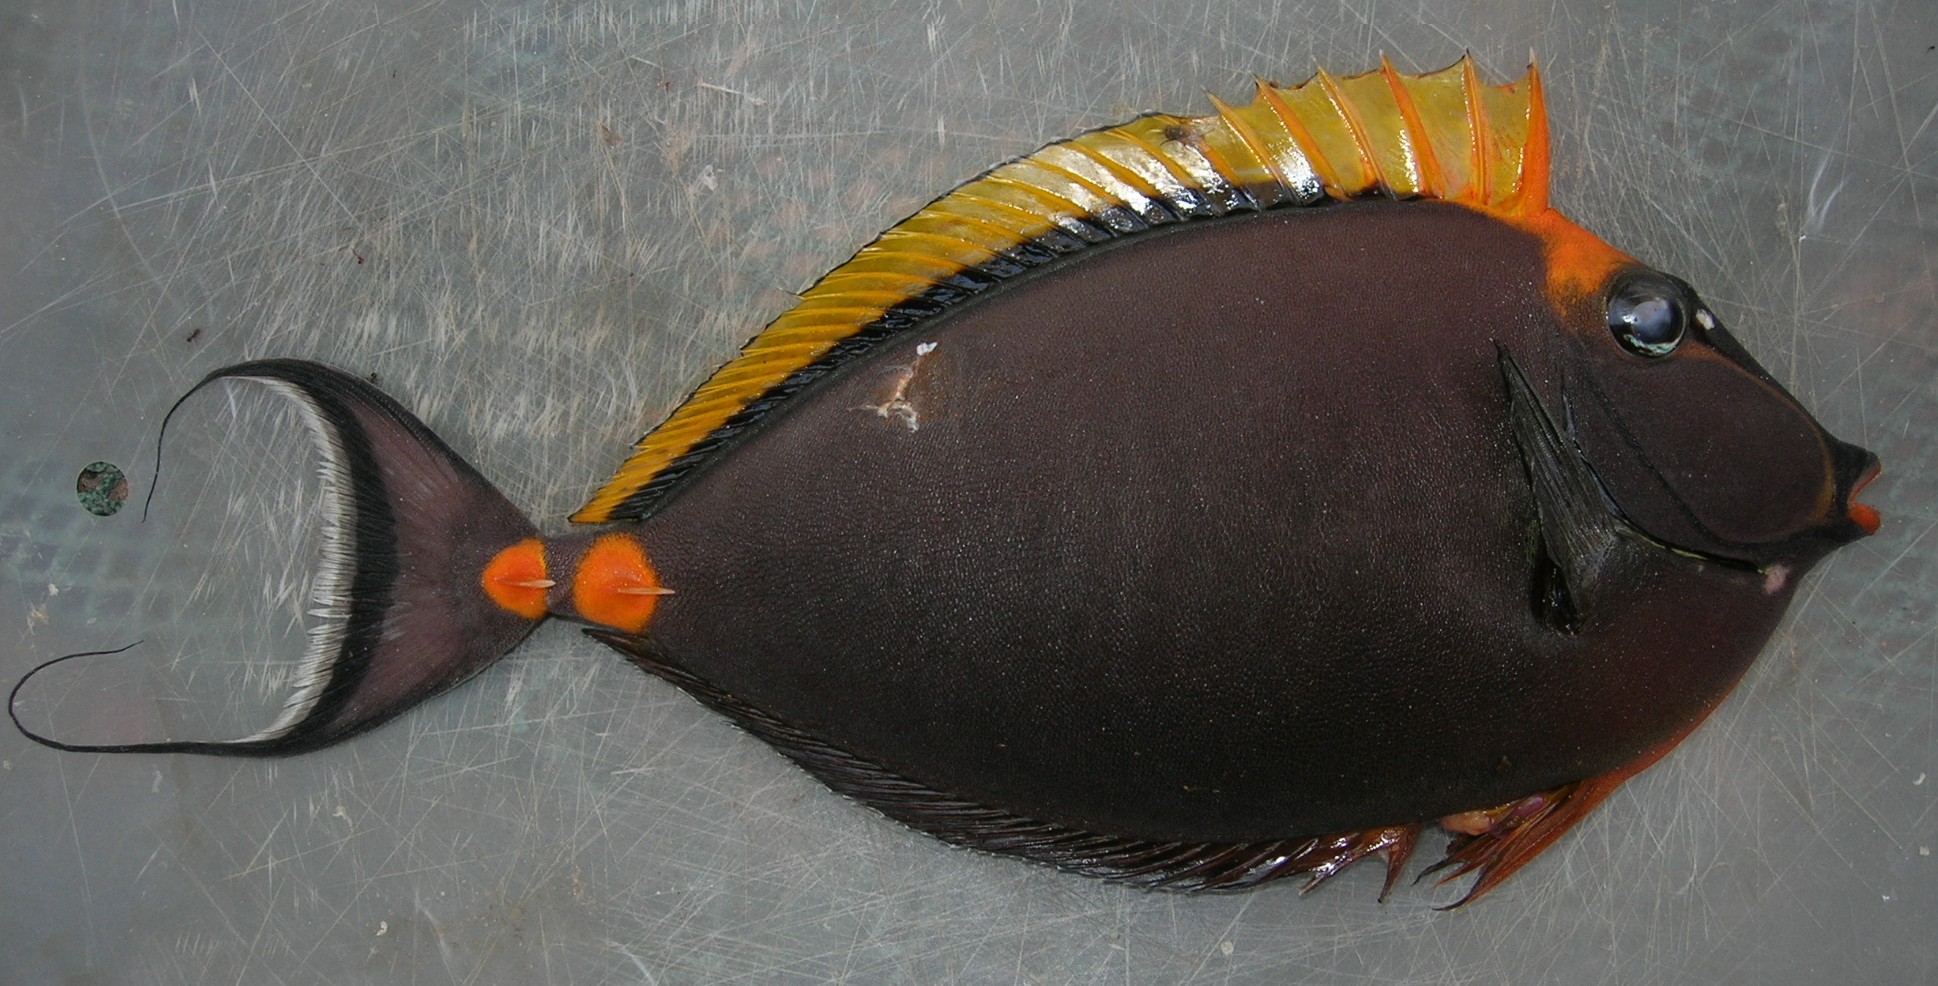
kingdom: Animalia
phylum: Chordata
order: Perciformes
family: Acanthuridae
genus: Naso
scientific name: Naso lituratus
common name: Orangespine unicornfish
